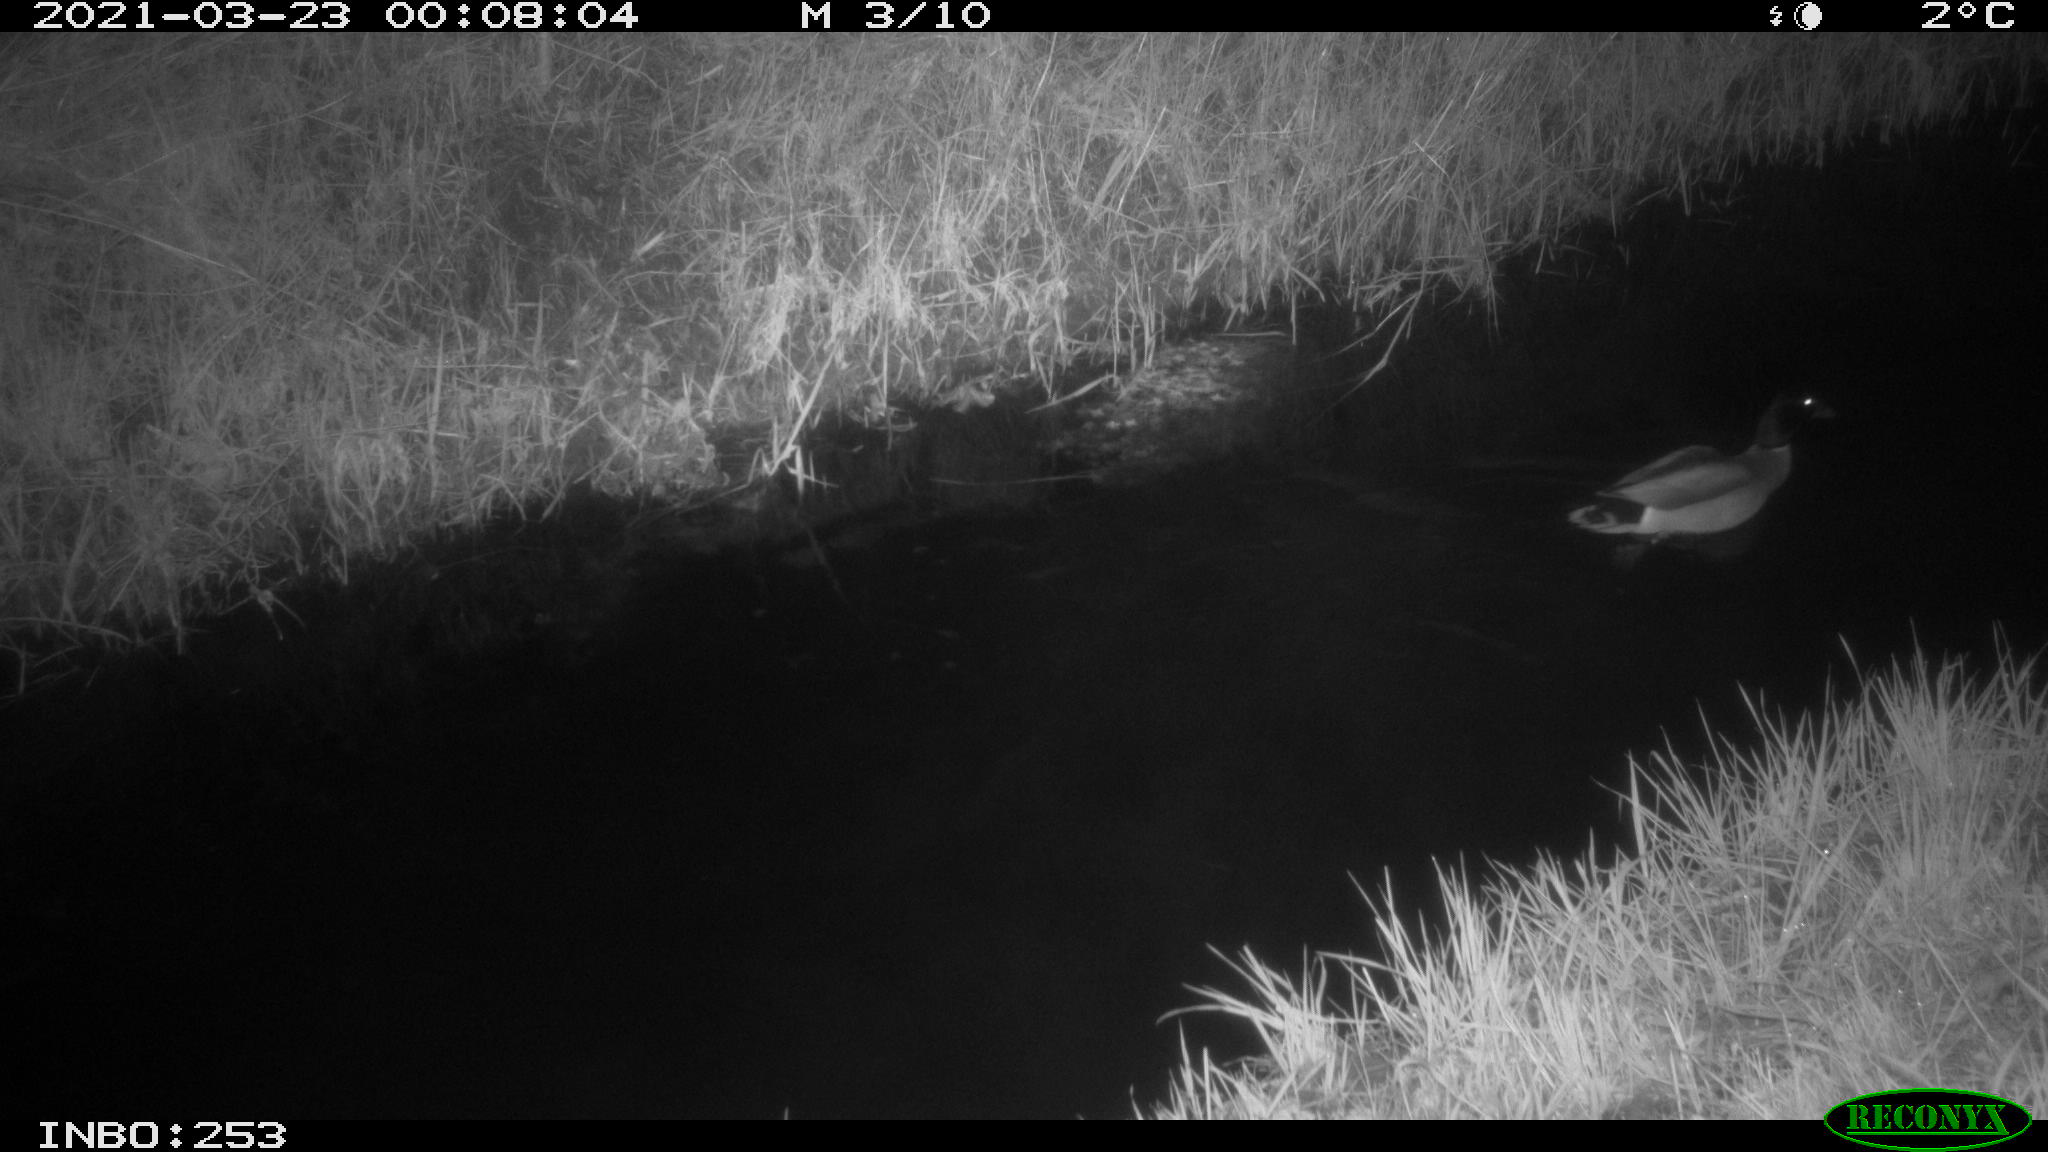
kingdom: Animalia
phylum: Chordata
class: Aves
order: Anseriformes
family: Anatidae
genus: Anas
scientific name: Anas platyrhynchos
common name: Mallard
